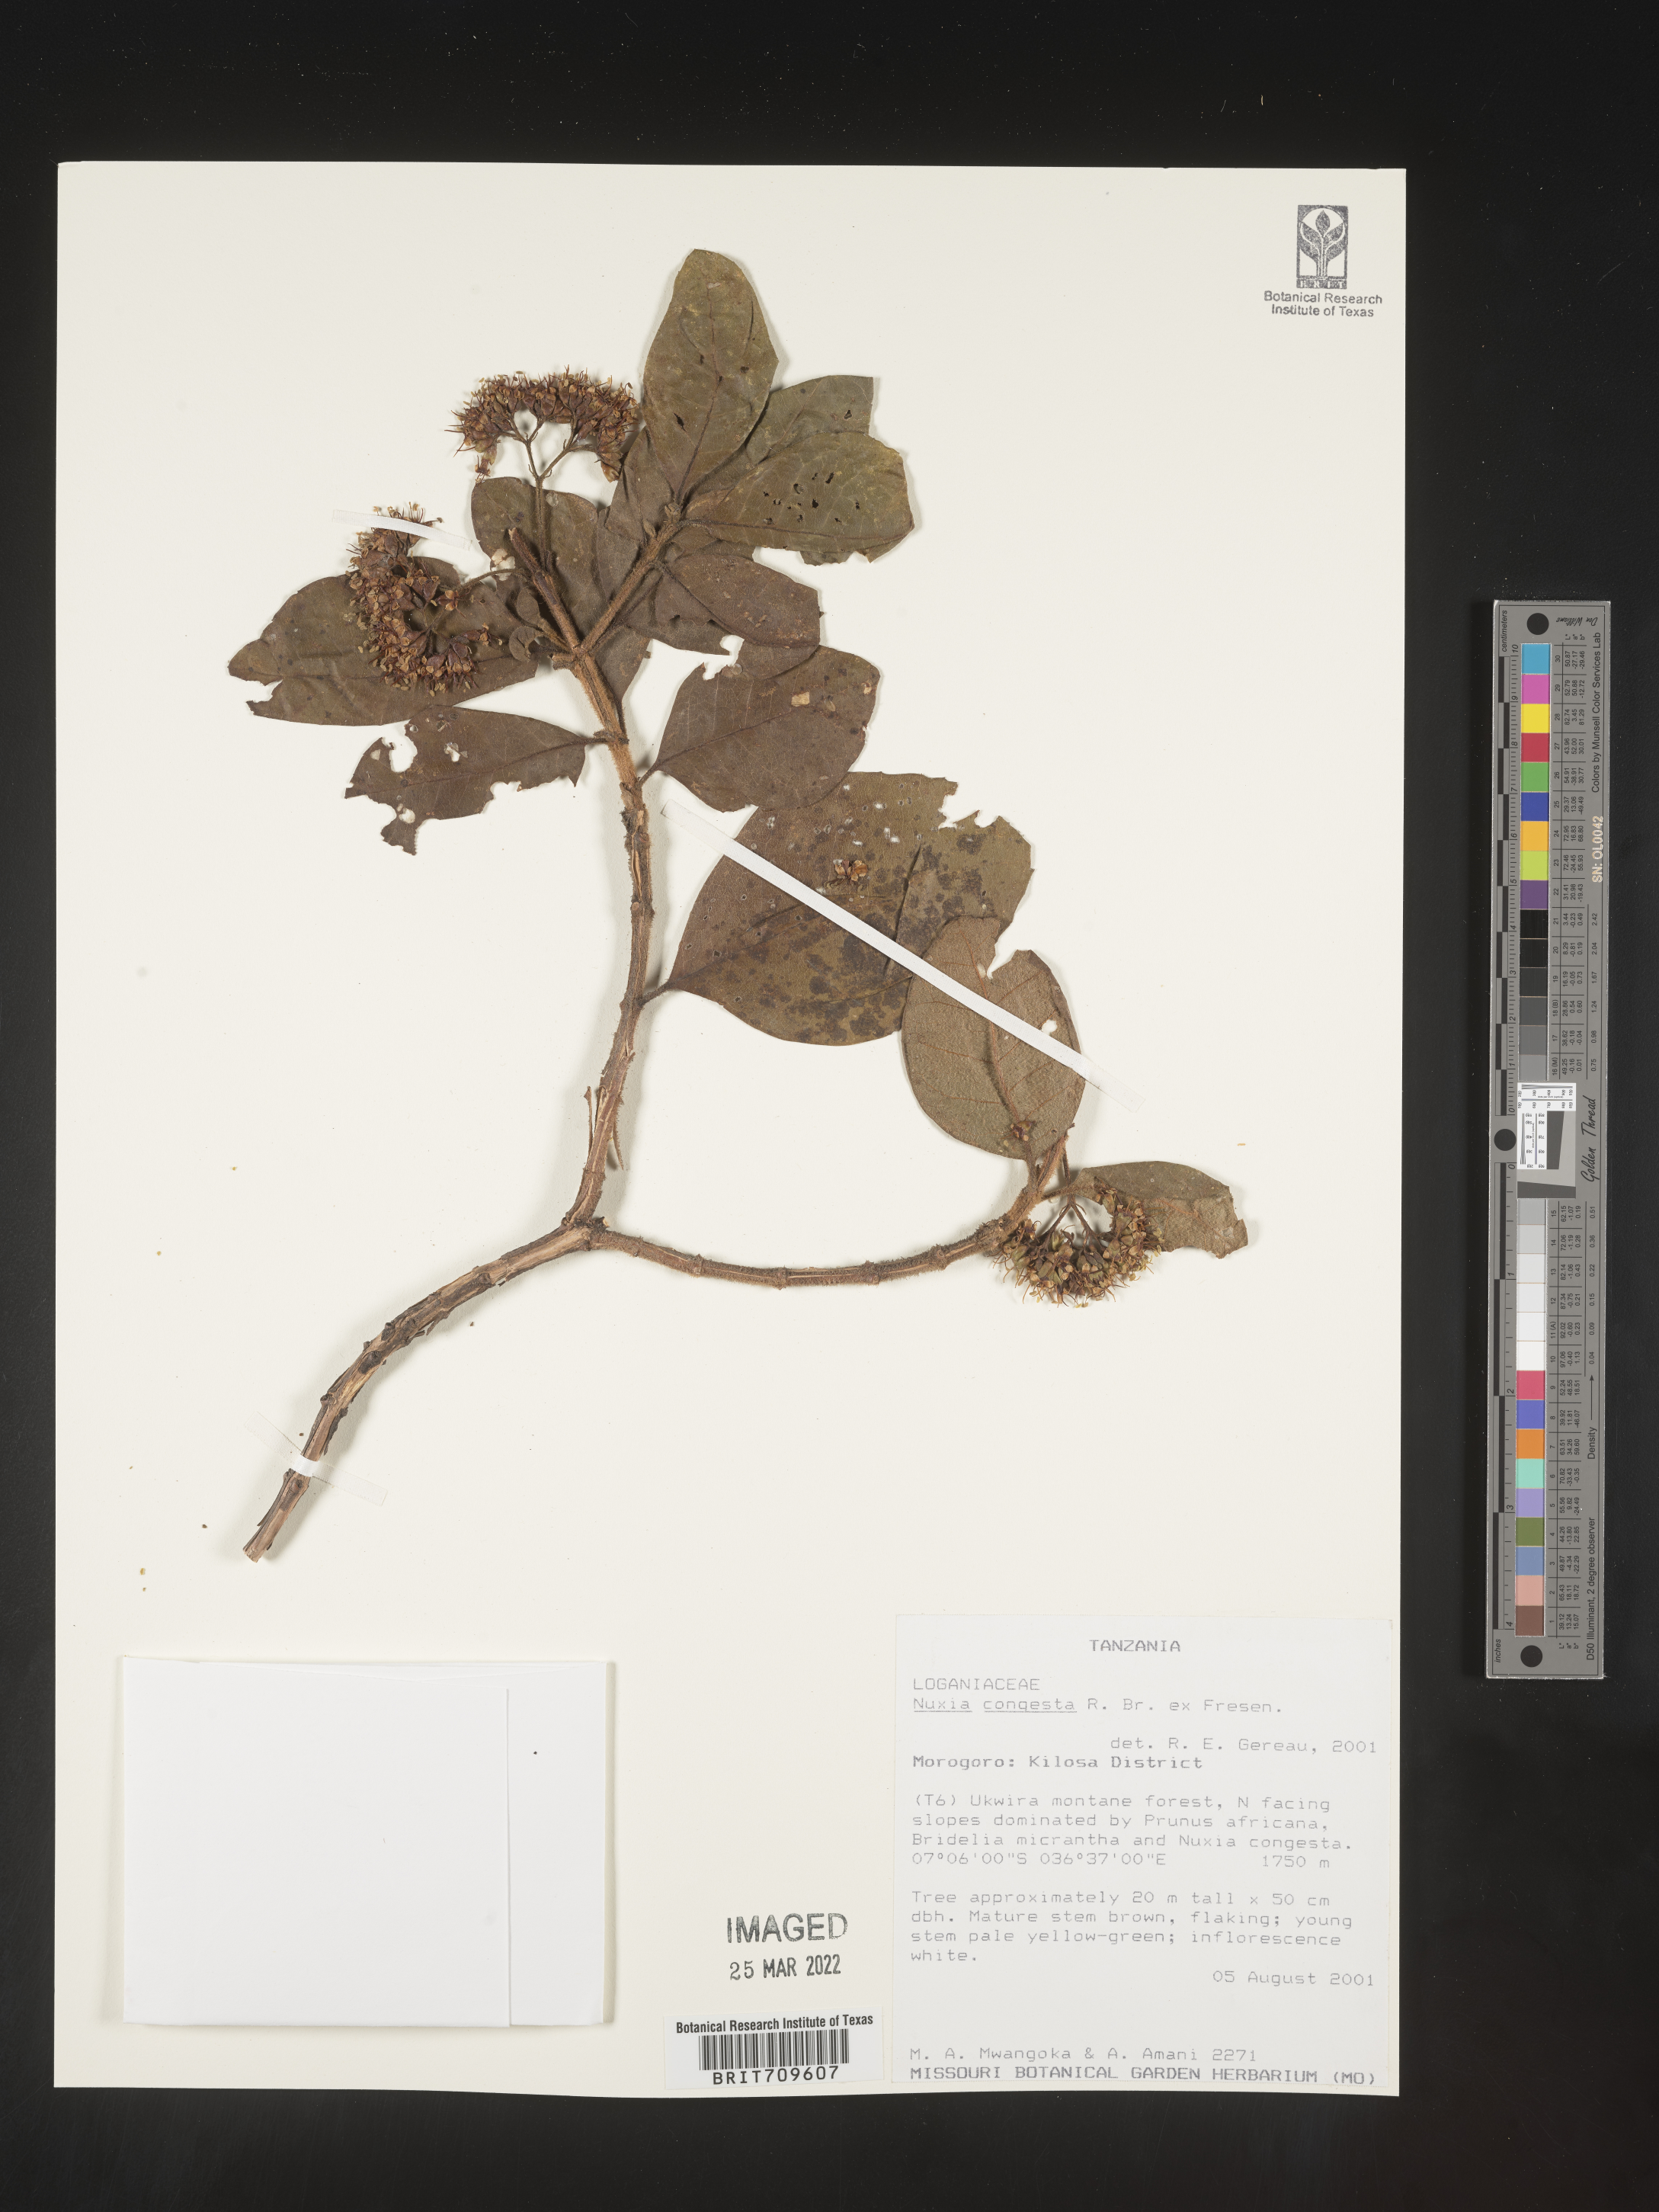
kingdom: Plantae
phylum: Tracheophyta
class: Magnoliopsida
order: Lamiales
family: Stilbaceae
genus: Nuxia
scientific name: Nuxia
